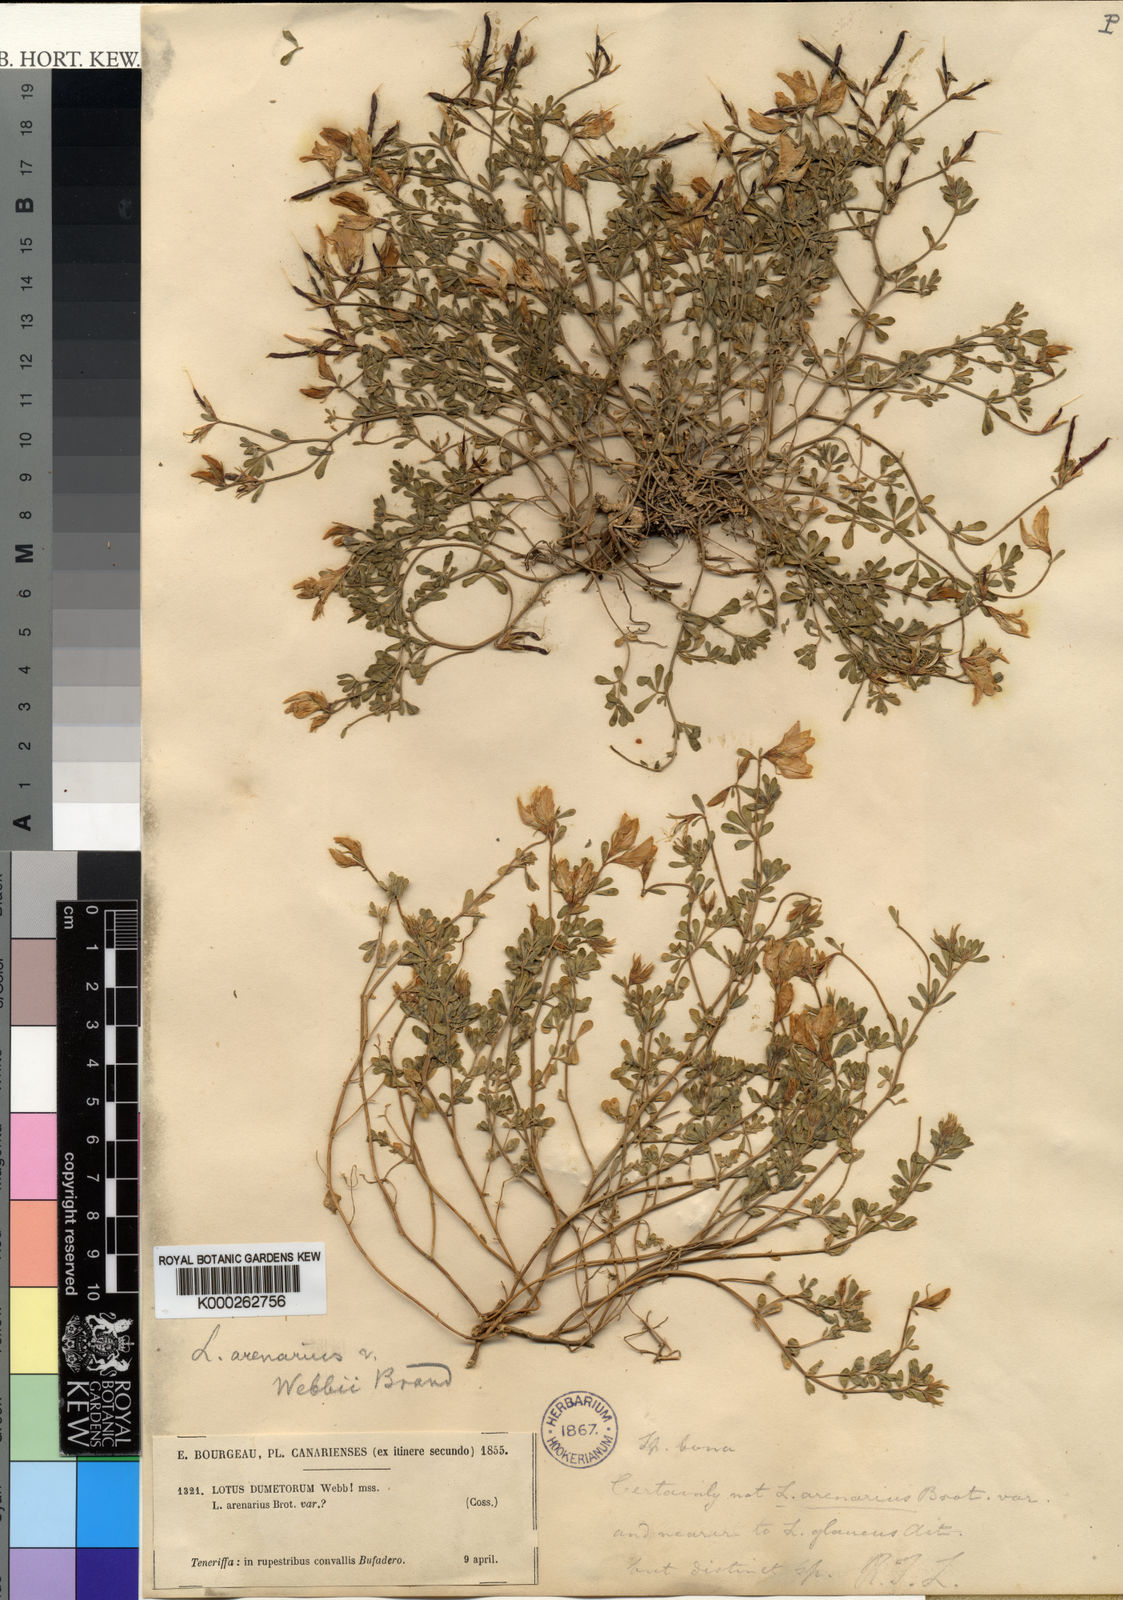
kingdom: Plantae
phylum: Tracheophyta
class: Magnoliopsida
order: Fabales
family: Fabaceae
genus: Lotus
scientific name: Lotus glaucus
